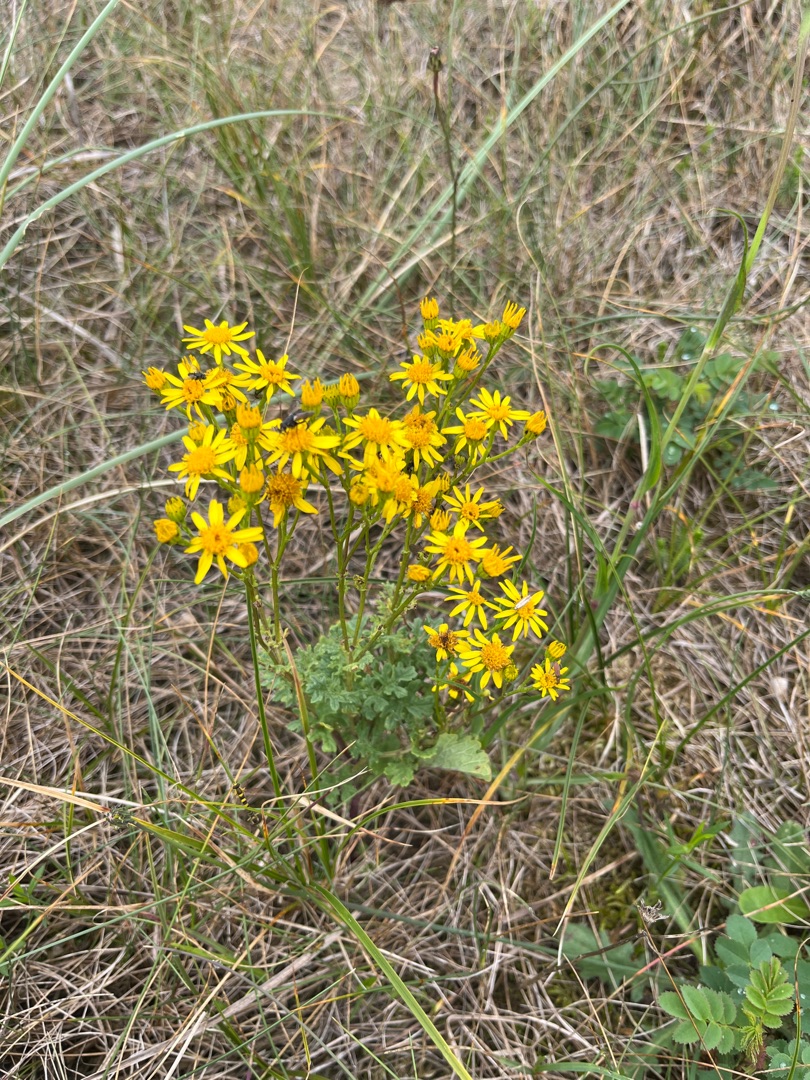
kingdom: Plantae
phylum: Tracheophyta
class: Magnoliopsida
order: Asterales
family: Asteraceae
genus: Jacobaea
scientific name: Jacobaea vulgaris
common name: Eng-brandbæger
